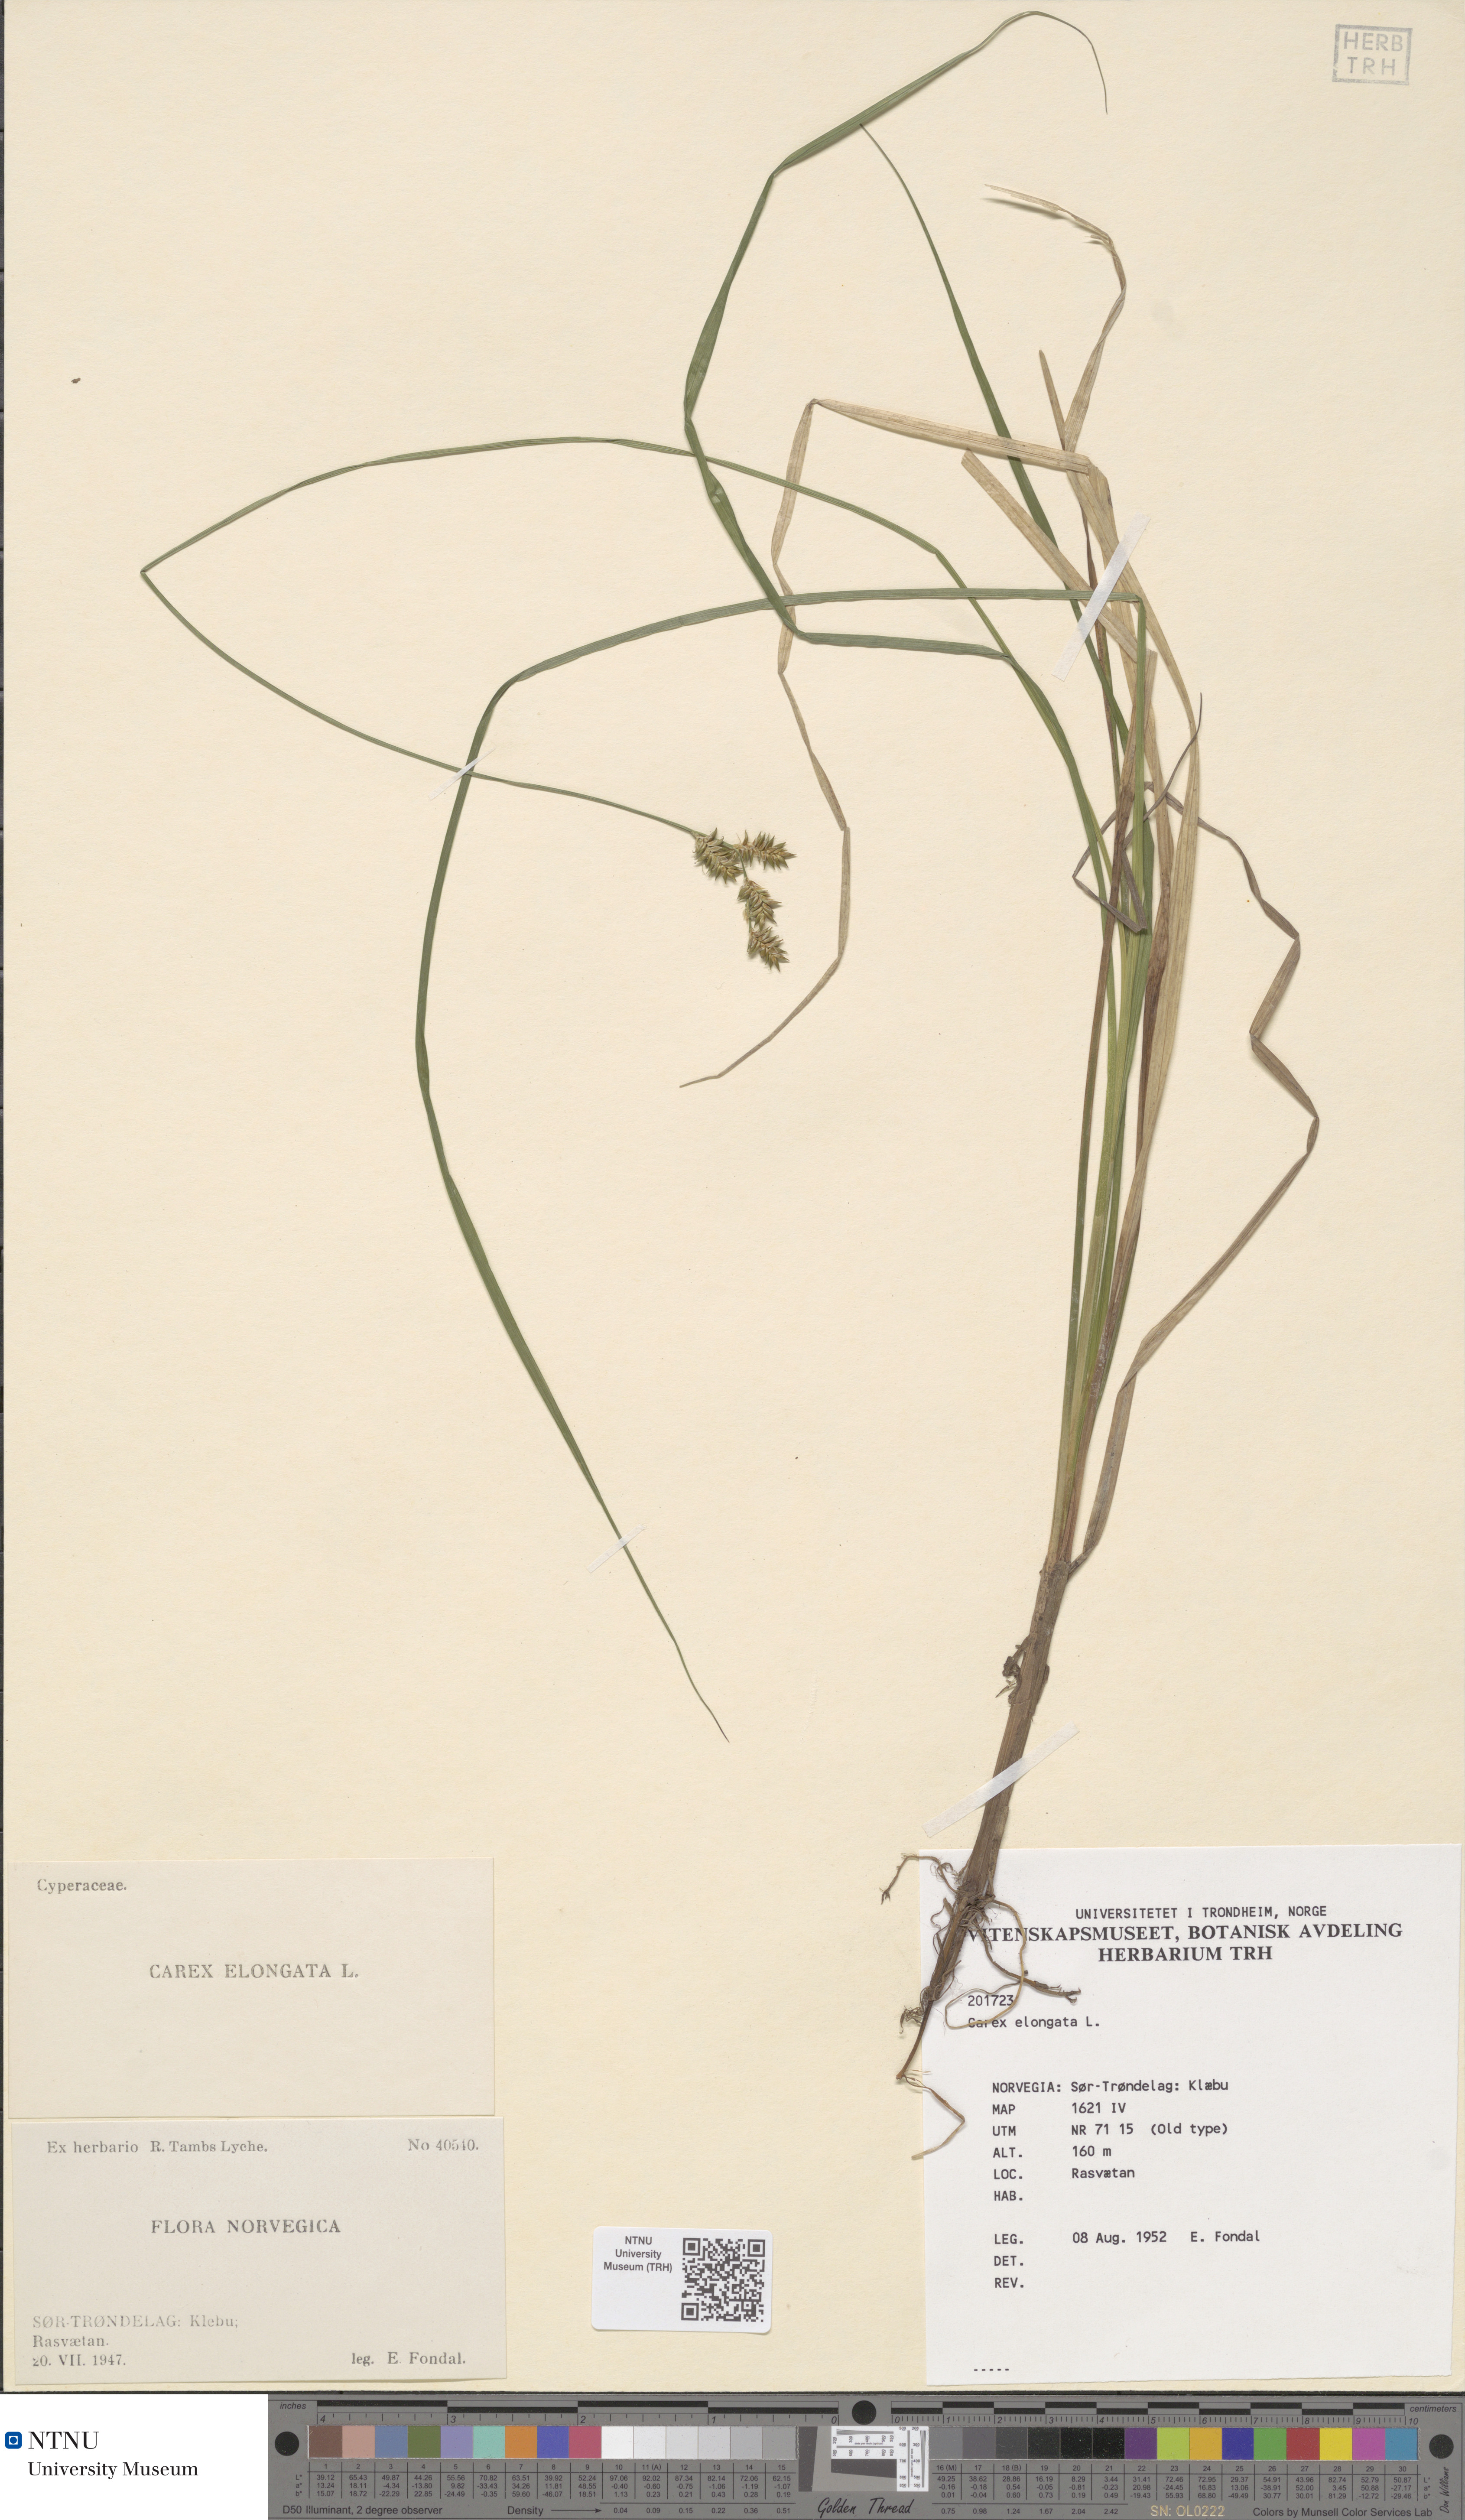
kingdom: Plantae
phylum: Tracheophyta
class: Liliopsida
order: Poales
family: Cyperaceae
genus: Carex
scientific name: Carex elongata
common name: Elongated sedge
